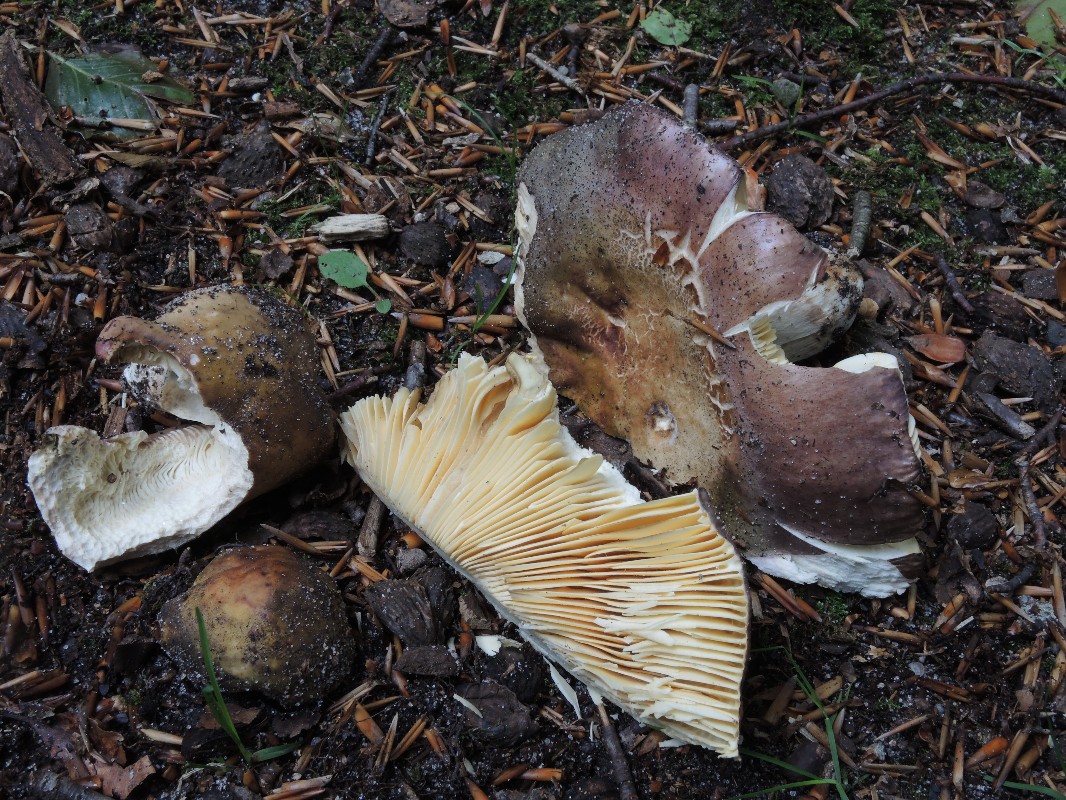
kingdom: Fungi
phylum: Basidiomycota
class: Agaricomycetes
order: Russulales
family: Russulaceae
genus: Russula
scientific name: Russula romellii
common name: romells skørhat
